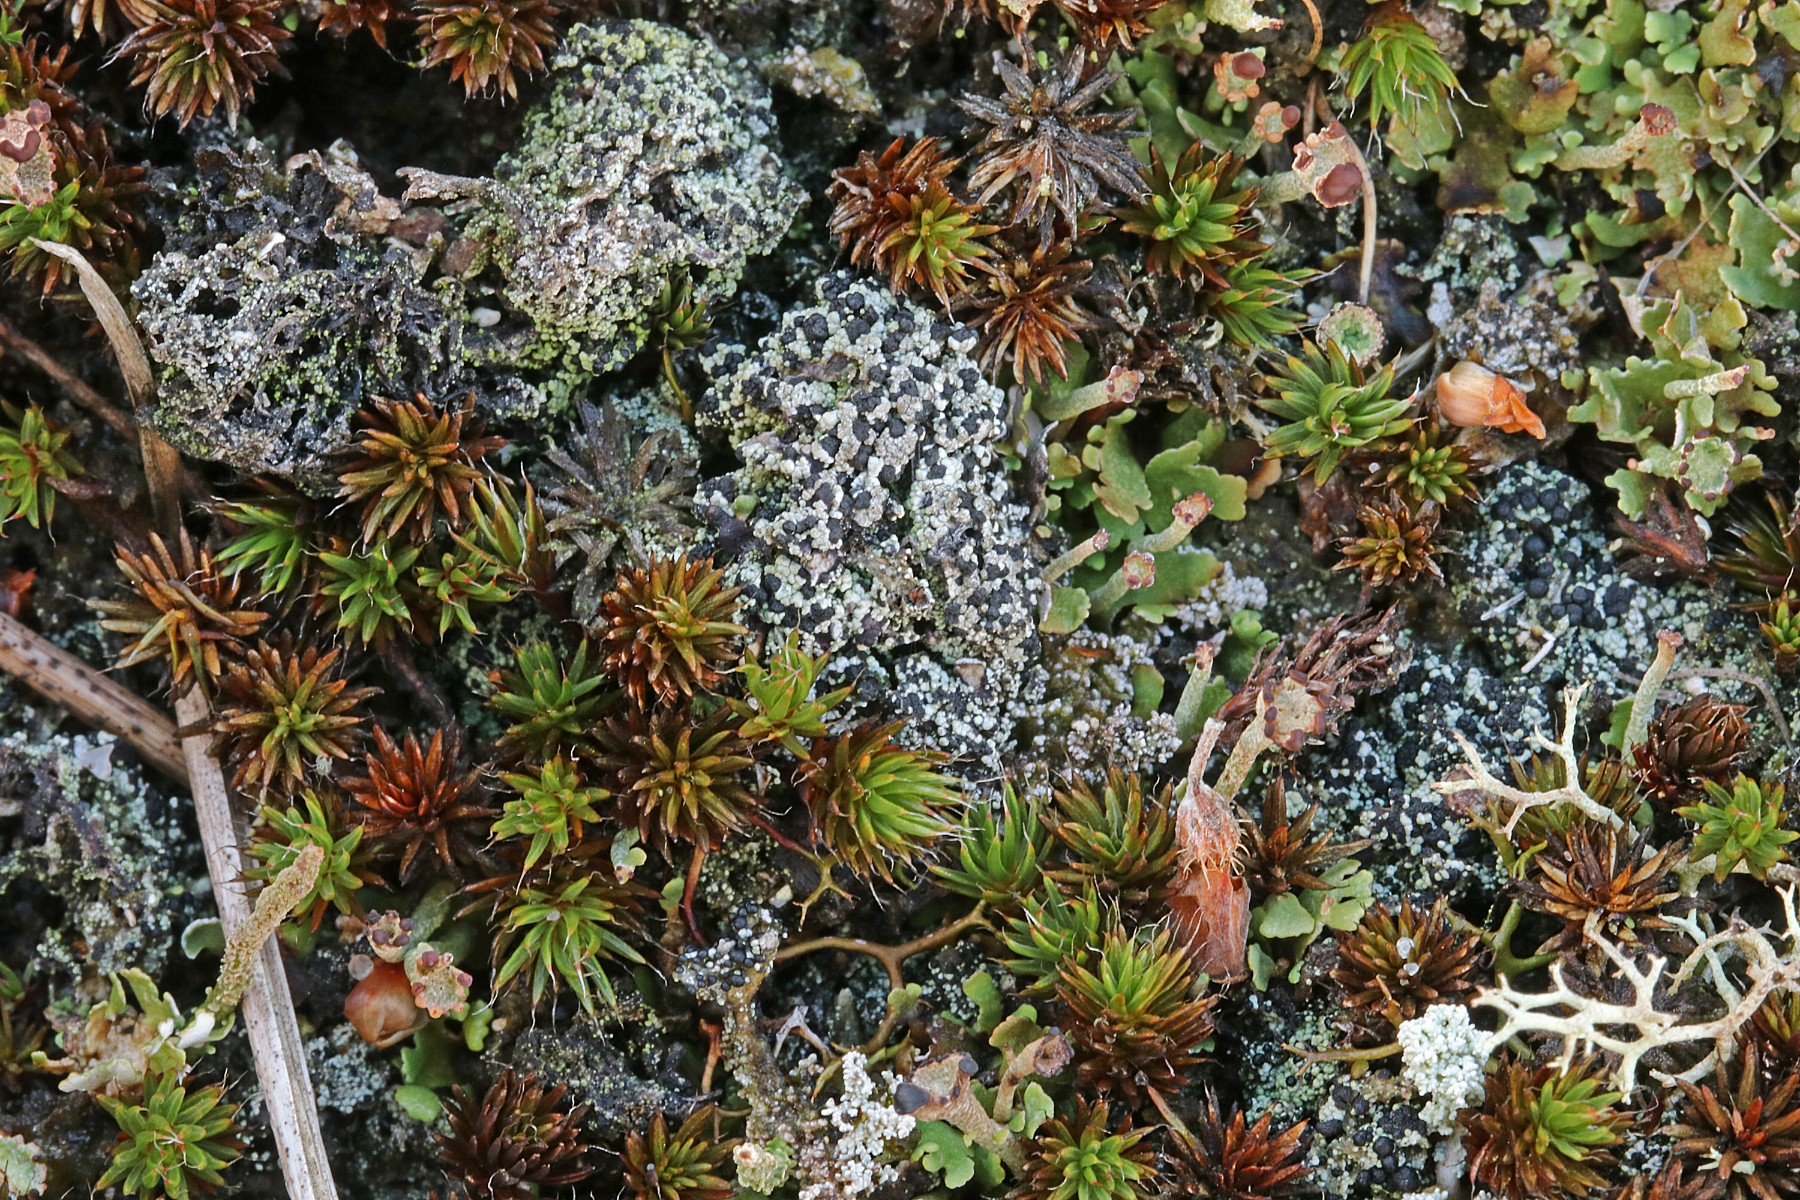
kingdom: Fungi
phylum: Ascomycota
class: Lecanoromycetes
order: Lecanorales
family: Byssolomataceae
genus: Micarea
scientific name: Micarea lignaria
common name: tørve-knaplav
